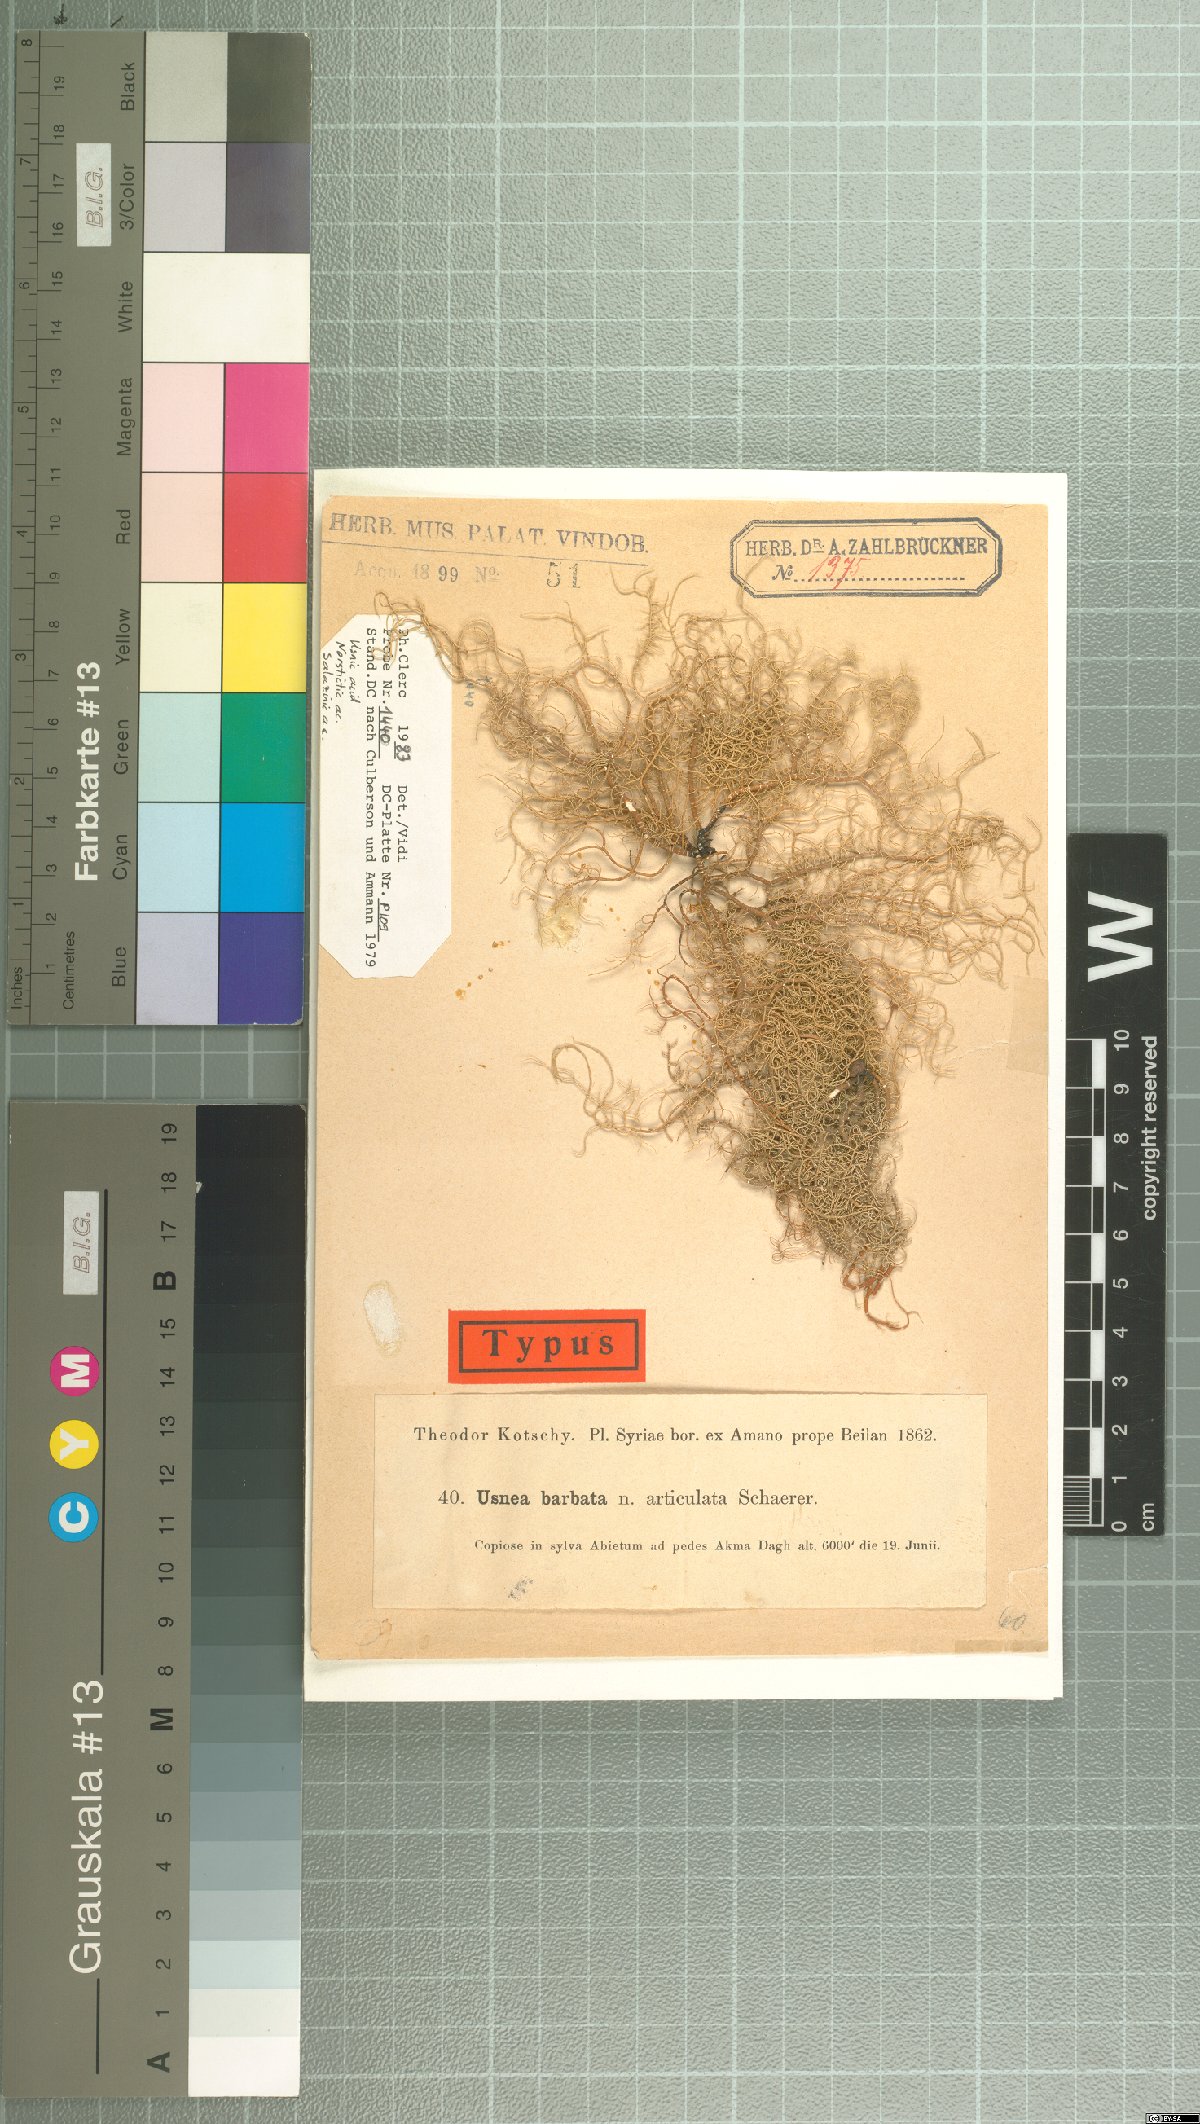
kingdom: Fungi
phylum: Ascomycota
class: Lecanoromycetes
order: Lecanorales
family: Parmeliaceae
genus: Usnea
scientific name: Usnea
